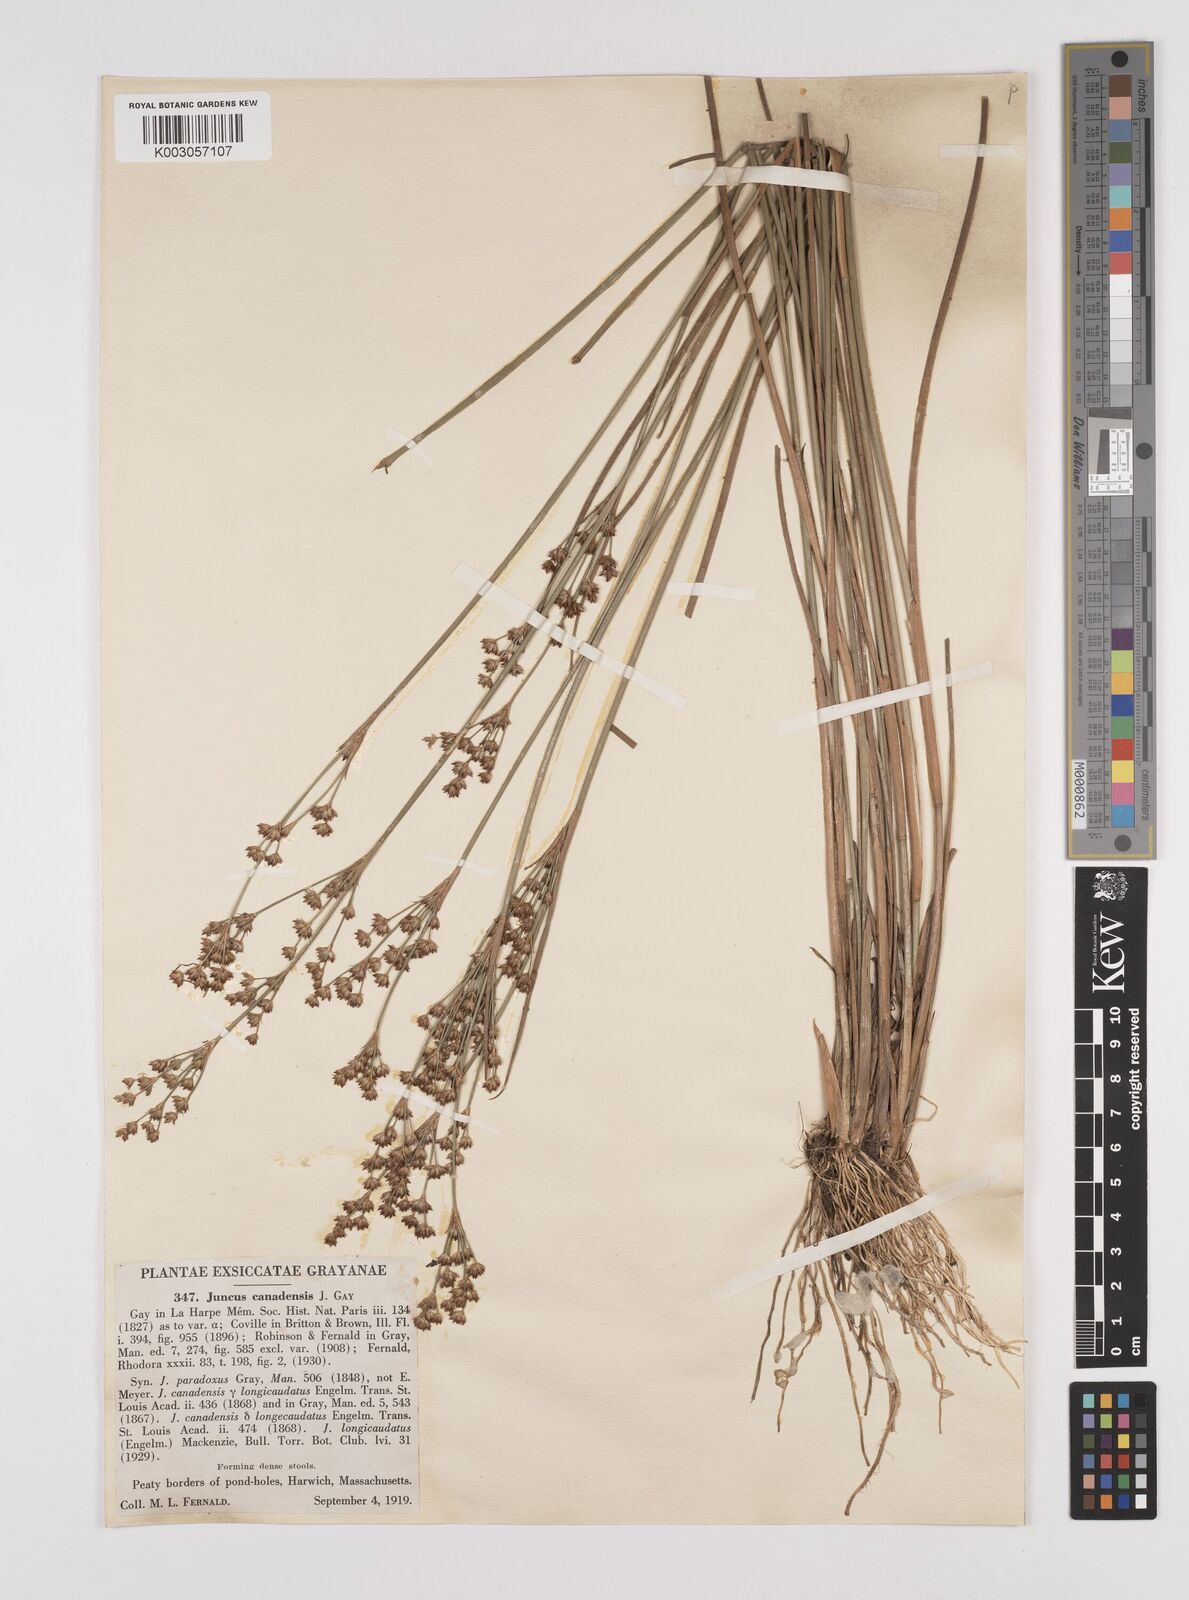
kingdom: Plantae
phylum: Tracheophyta
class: Liliopsida
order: Poales
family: Juncaceae
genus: Juncus
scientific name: Juncus canadensis
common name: Canada rush
